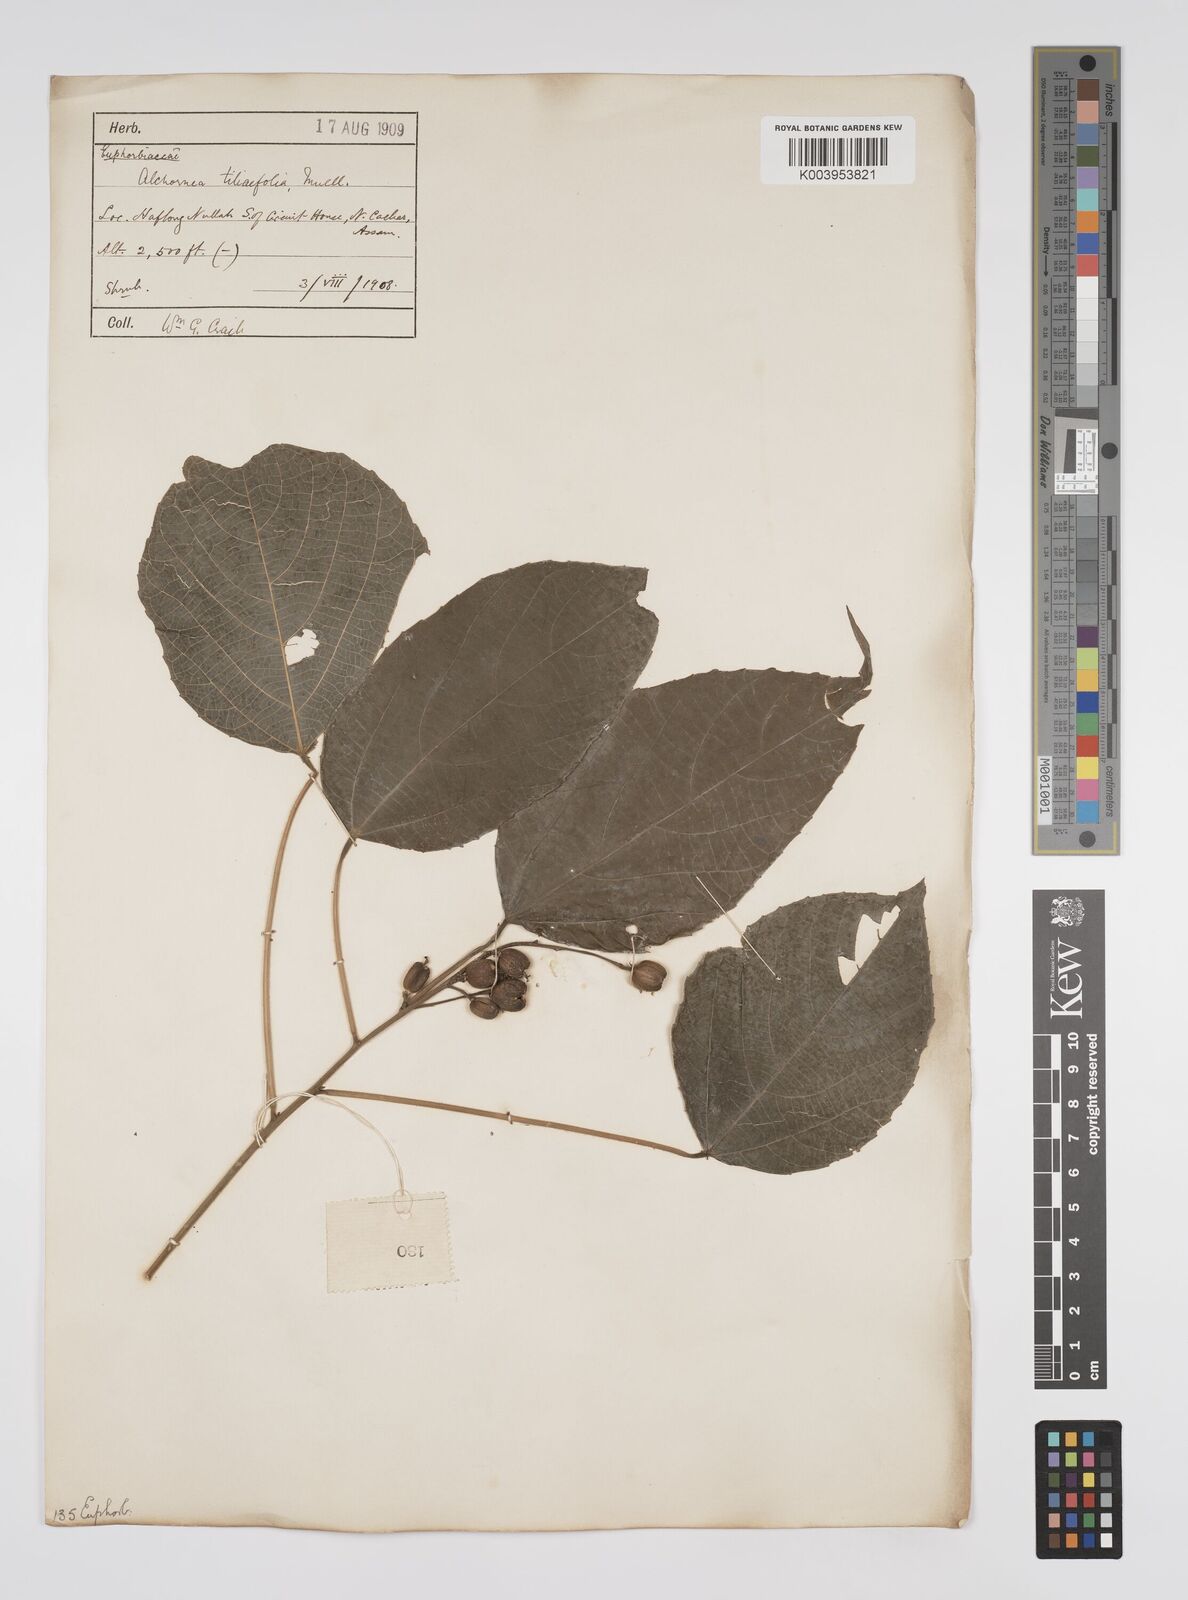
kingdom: Plantae
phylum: Tracheophyta
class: Magnoliopsida
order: Malpighiales
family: Euphorbiaceae
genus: Alchornea
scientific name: Alchornea tiliifolia
